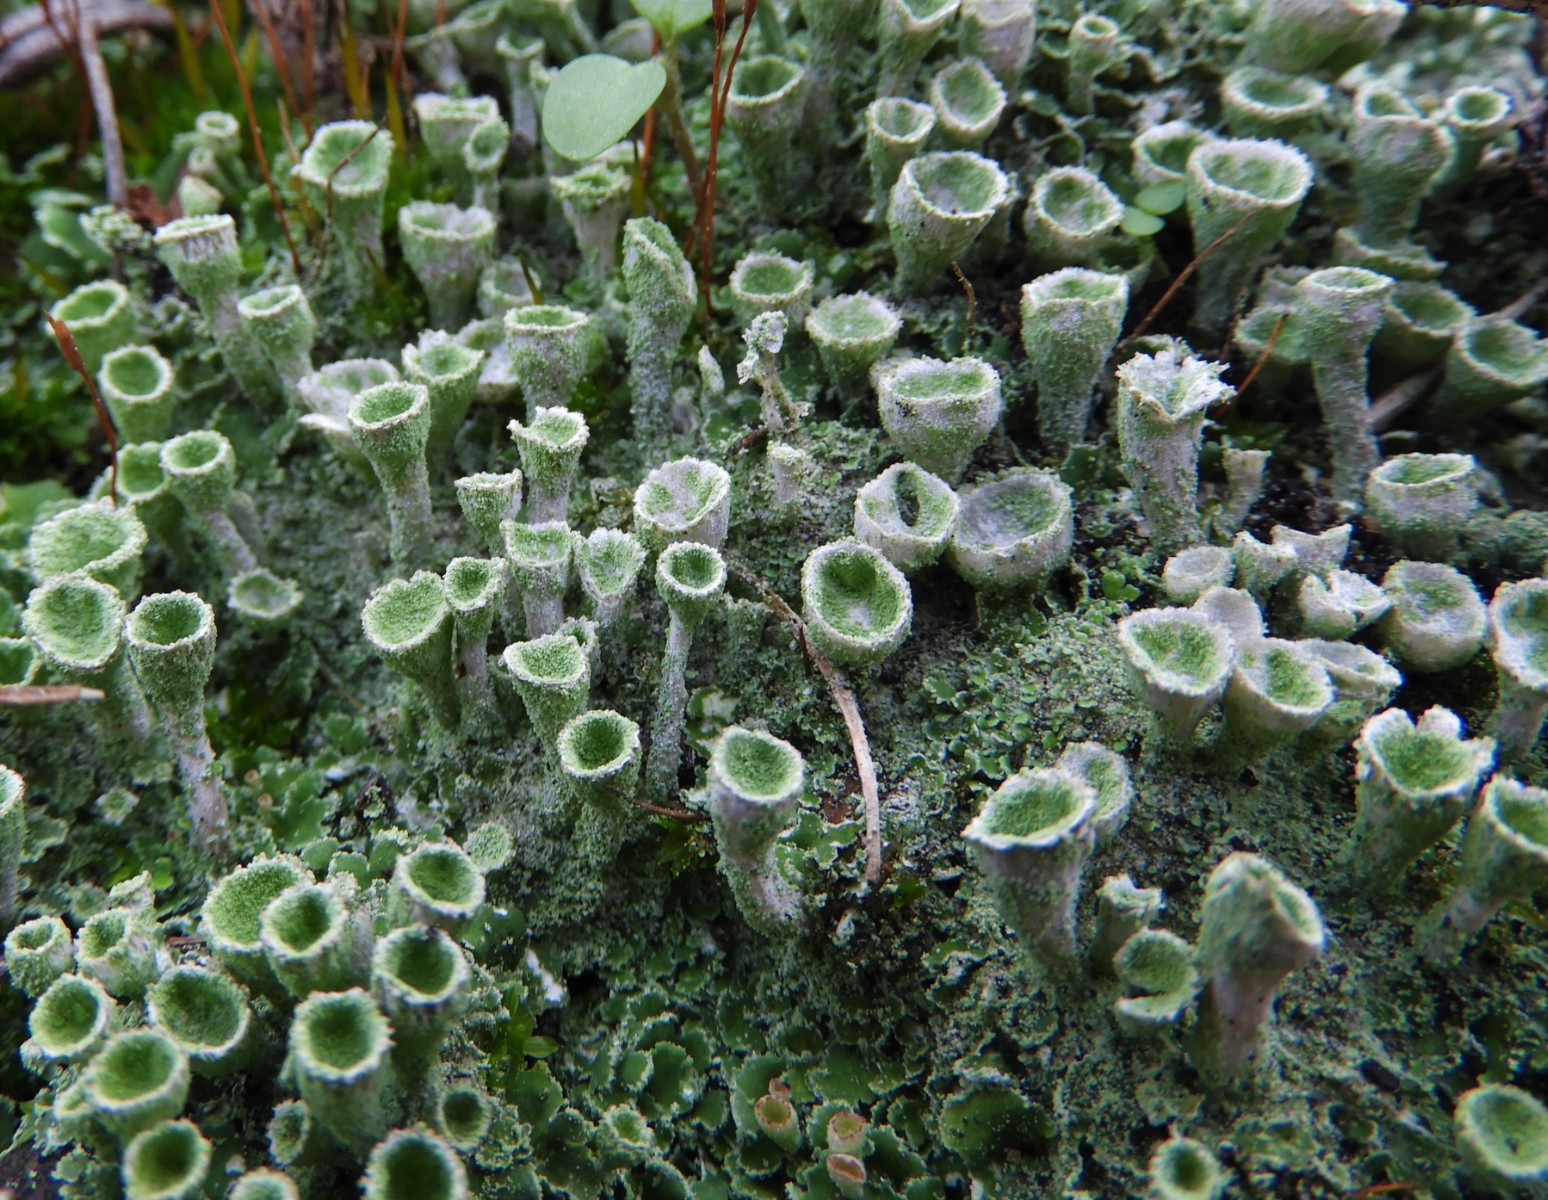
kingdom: Fungi
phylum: Ascomycota
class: Lecanoromycetes
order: Lecanorales
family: Cladoniaceae
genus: Cladonia
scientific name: Cladonia
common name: brungrøn bægerlav
